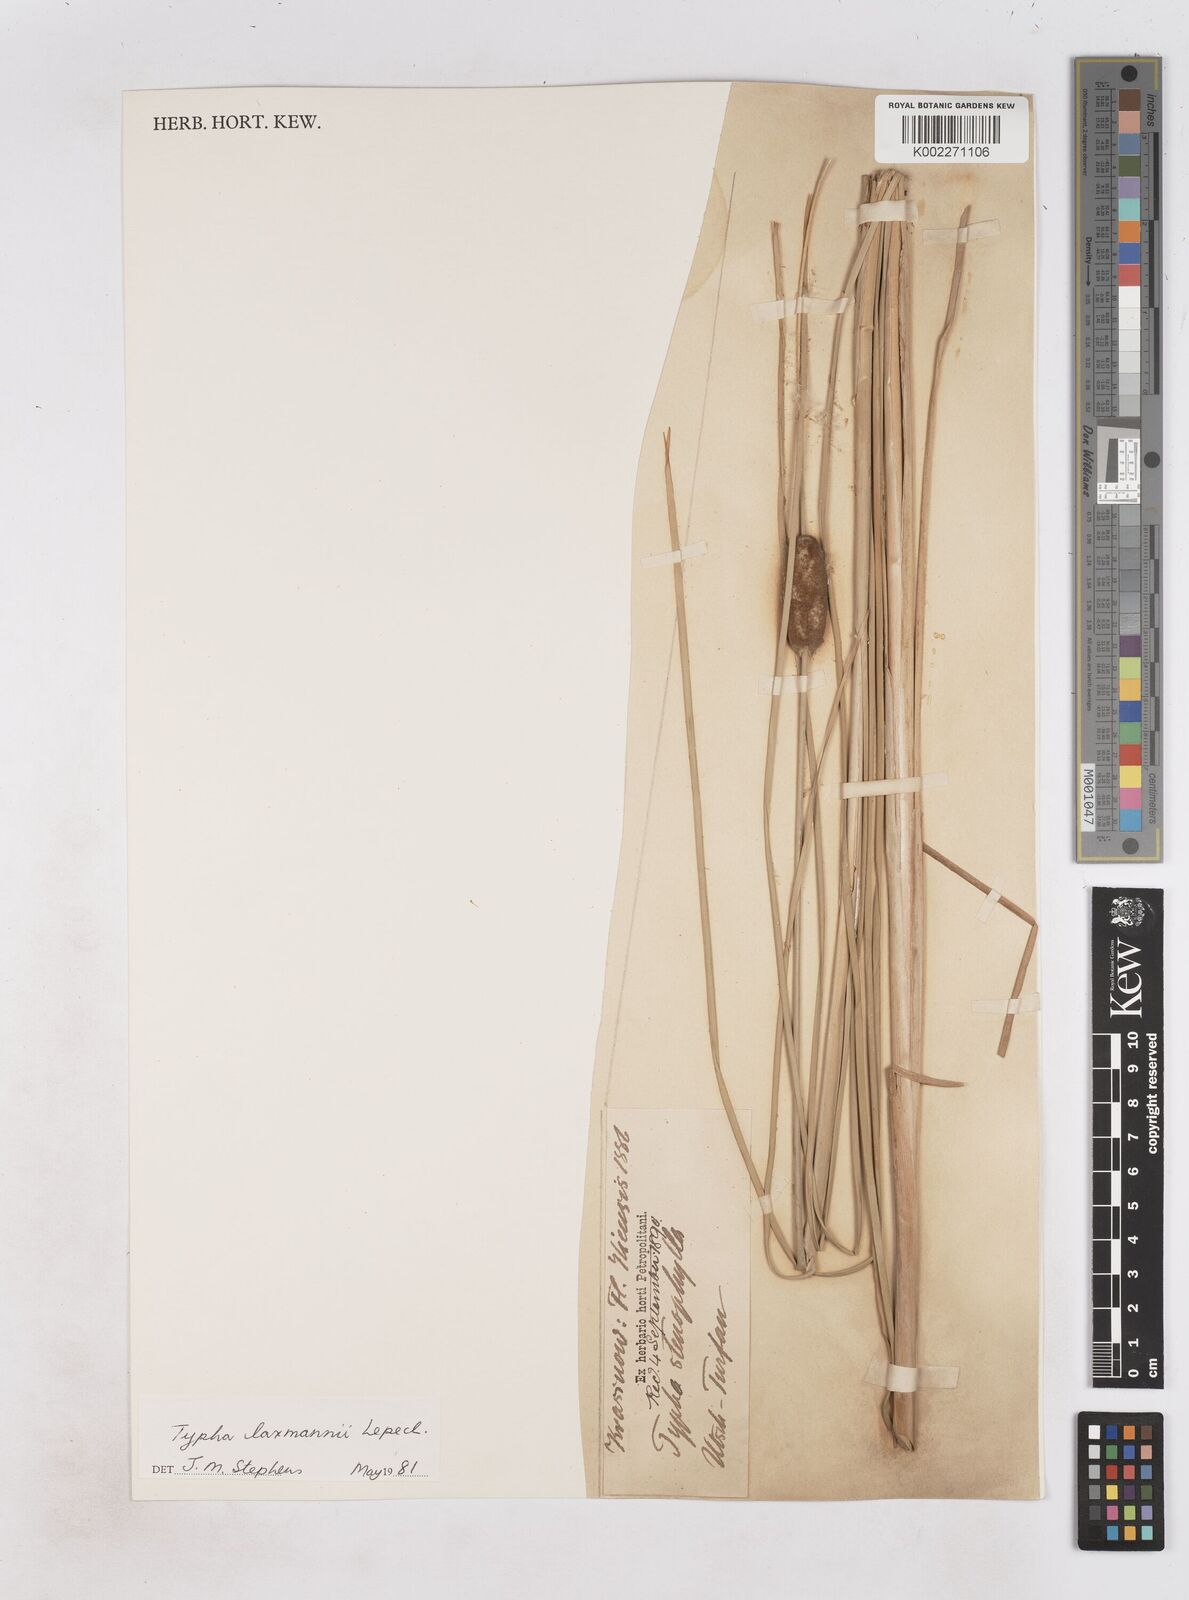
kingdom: Plantae
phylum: Tracheophyta
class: Liliopsida
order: Poales
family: Typhaceae
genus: Typha
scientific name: Typha laxmannii
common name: Laxman’s bulrush
